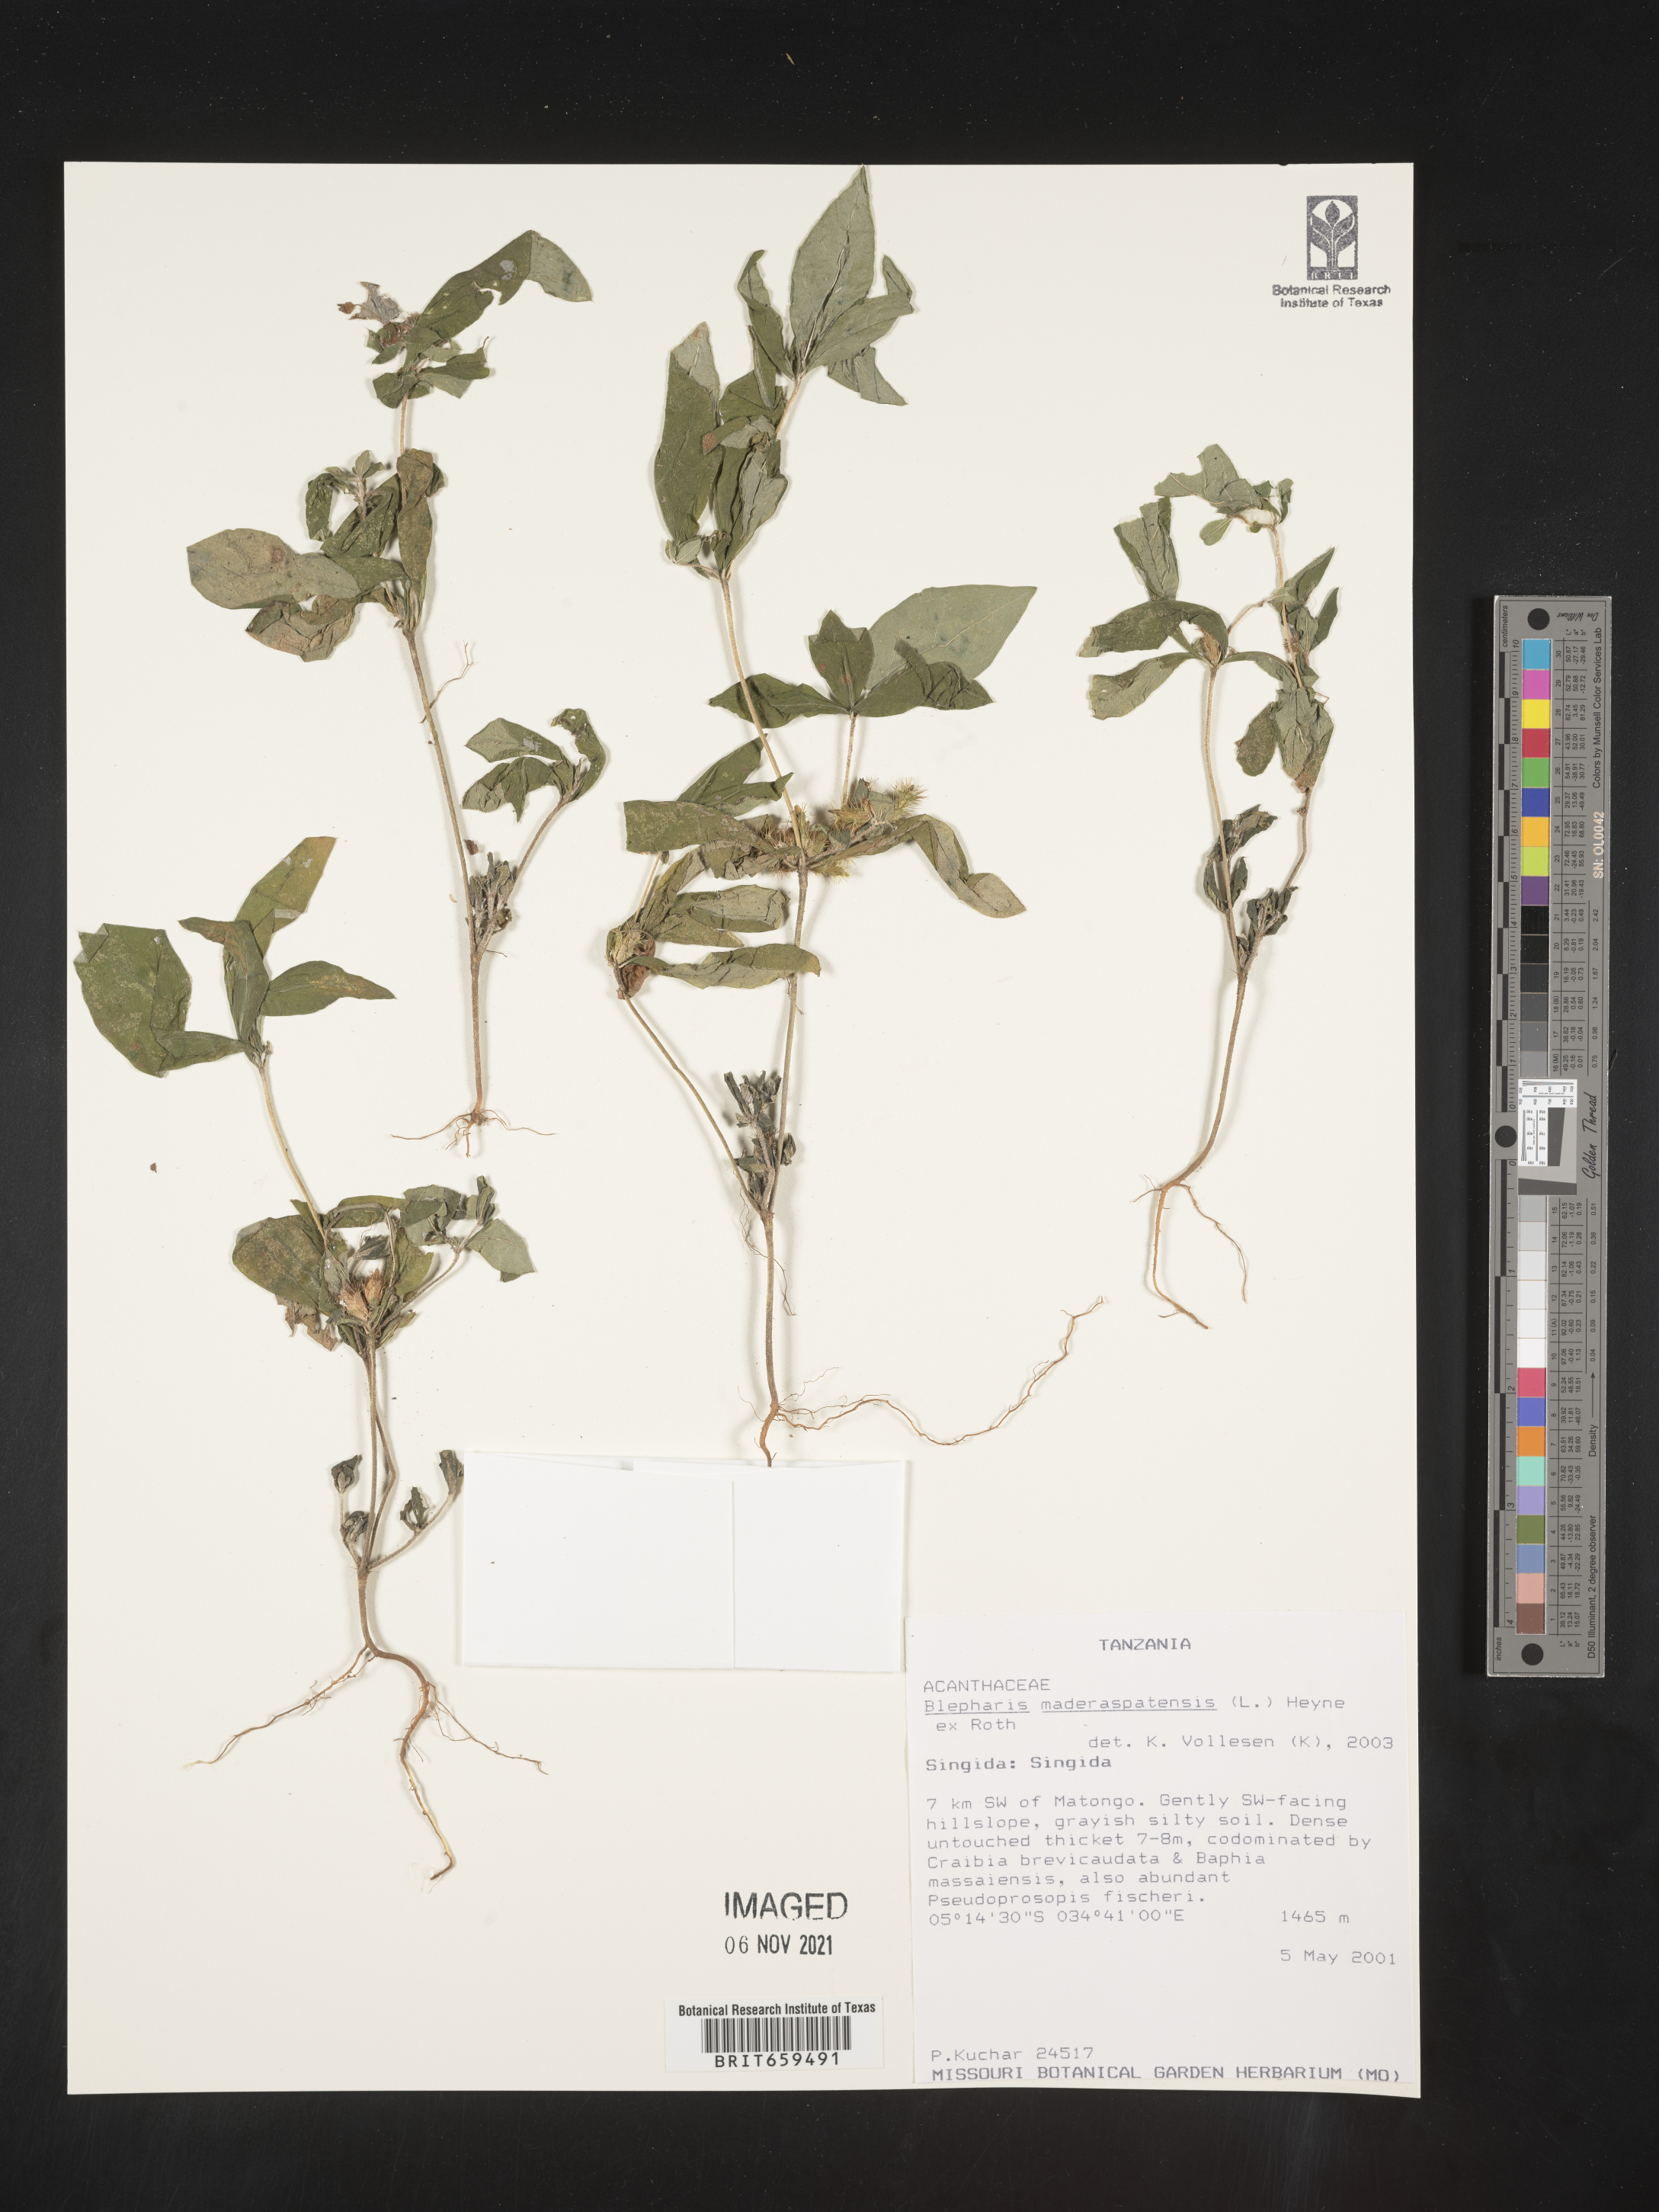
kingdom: Plantae
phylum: Tracheophyta
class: Magnoliopsida
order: Lamiales
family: Acanthaceae
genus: Blepharis
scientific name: Blepharis maderaspatensis
